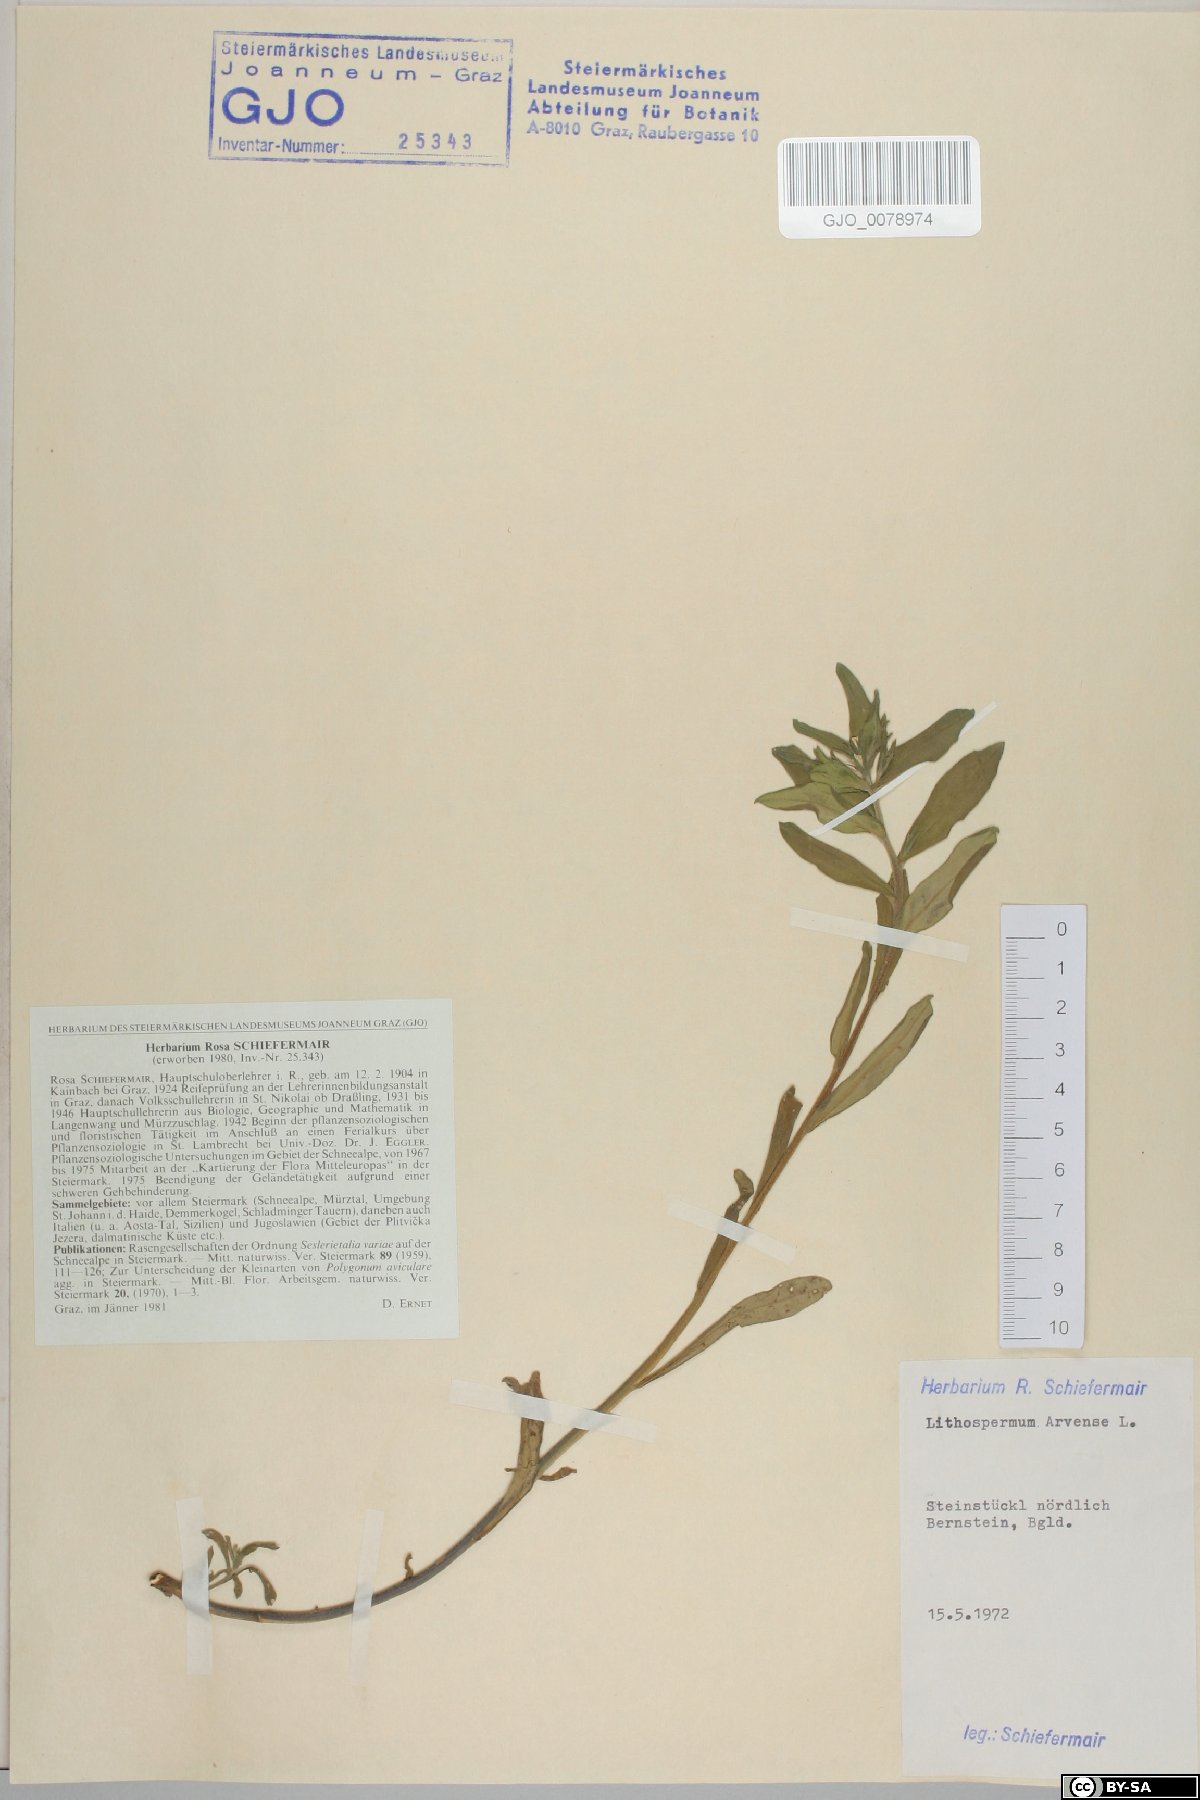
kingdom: Plantae
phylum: Tracheophyta
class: Magnoliopsida
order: Boraginales
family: Boraginaceae
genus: Buglossoides
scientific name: Buglossoides arvensis
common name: Corn gromwell
